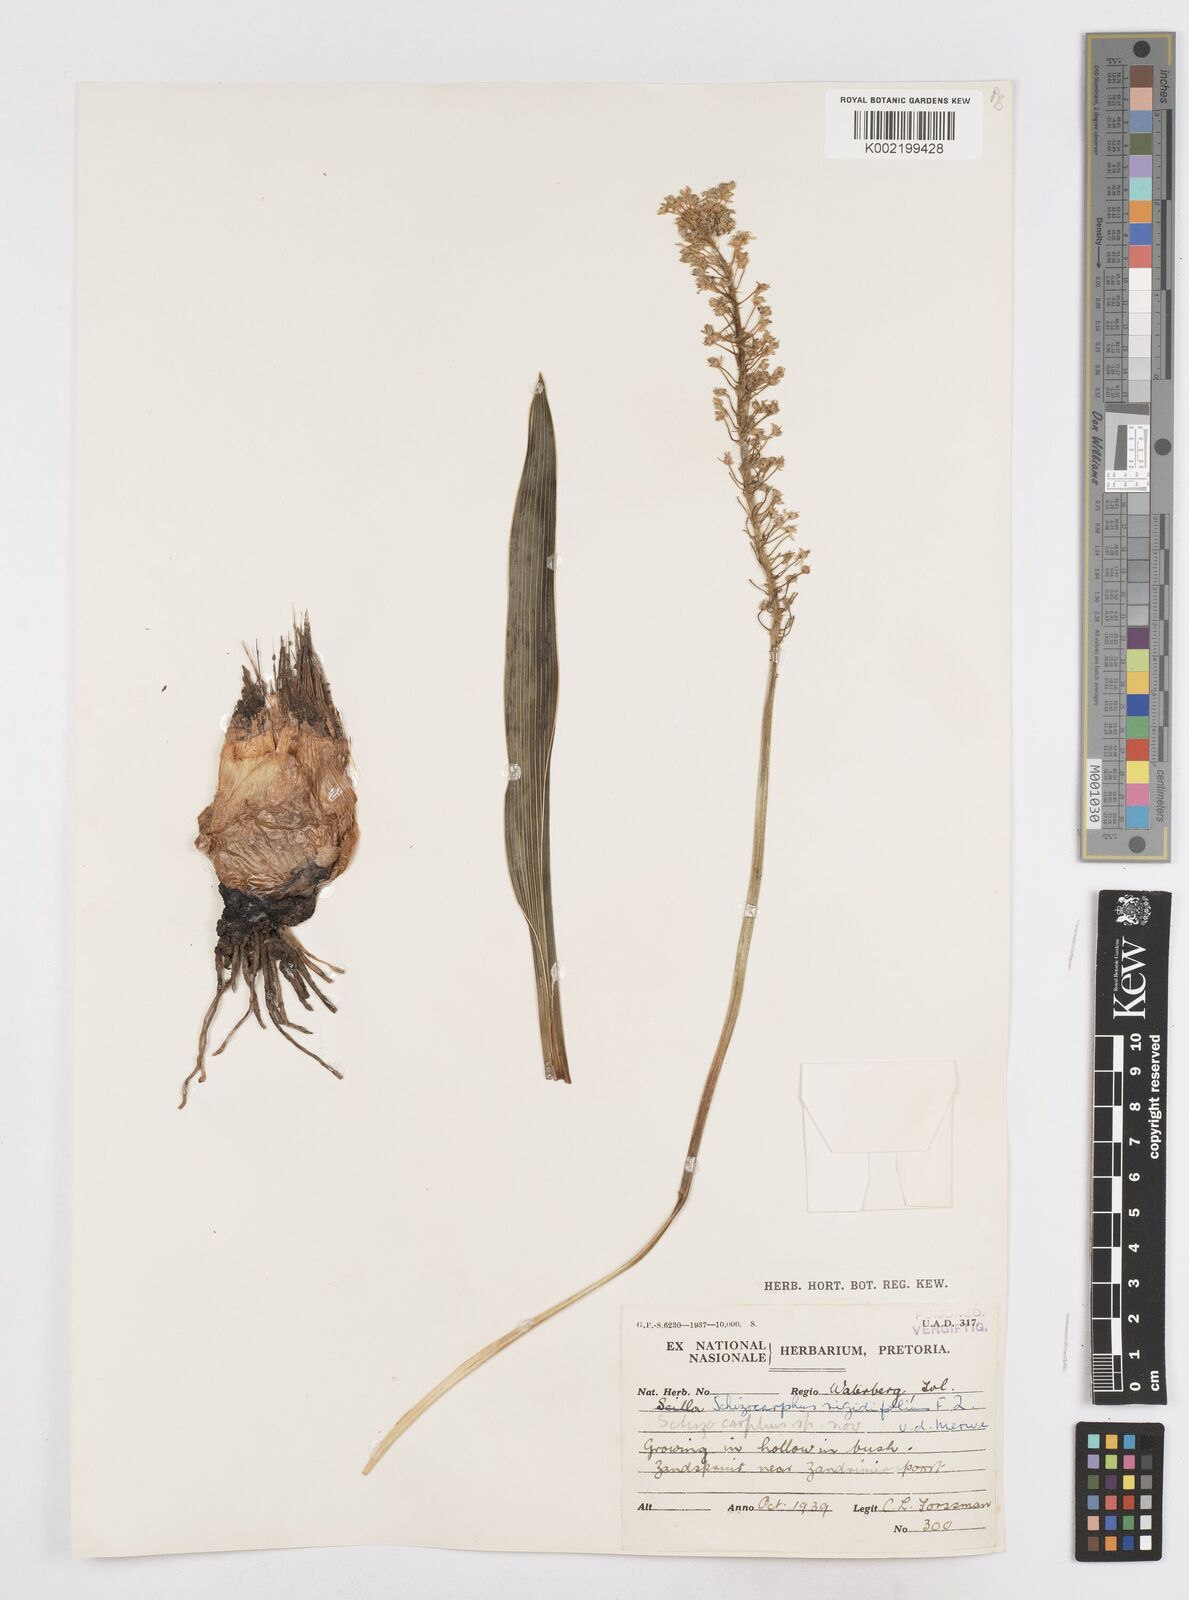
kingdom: Plantae
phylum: Tracheophyta
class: Liliopsida
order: Asparagales
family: Asparagaceae
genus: Schizocarphus
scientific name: Schizocarphus nervosus
